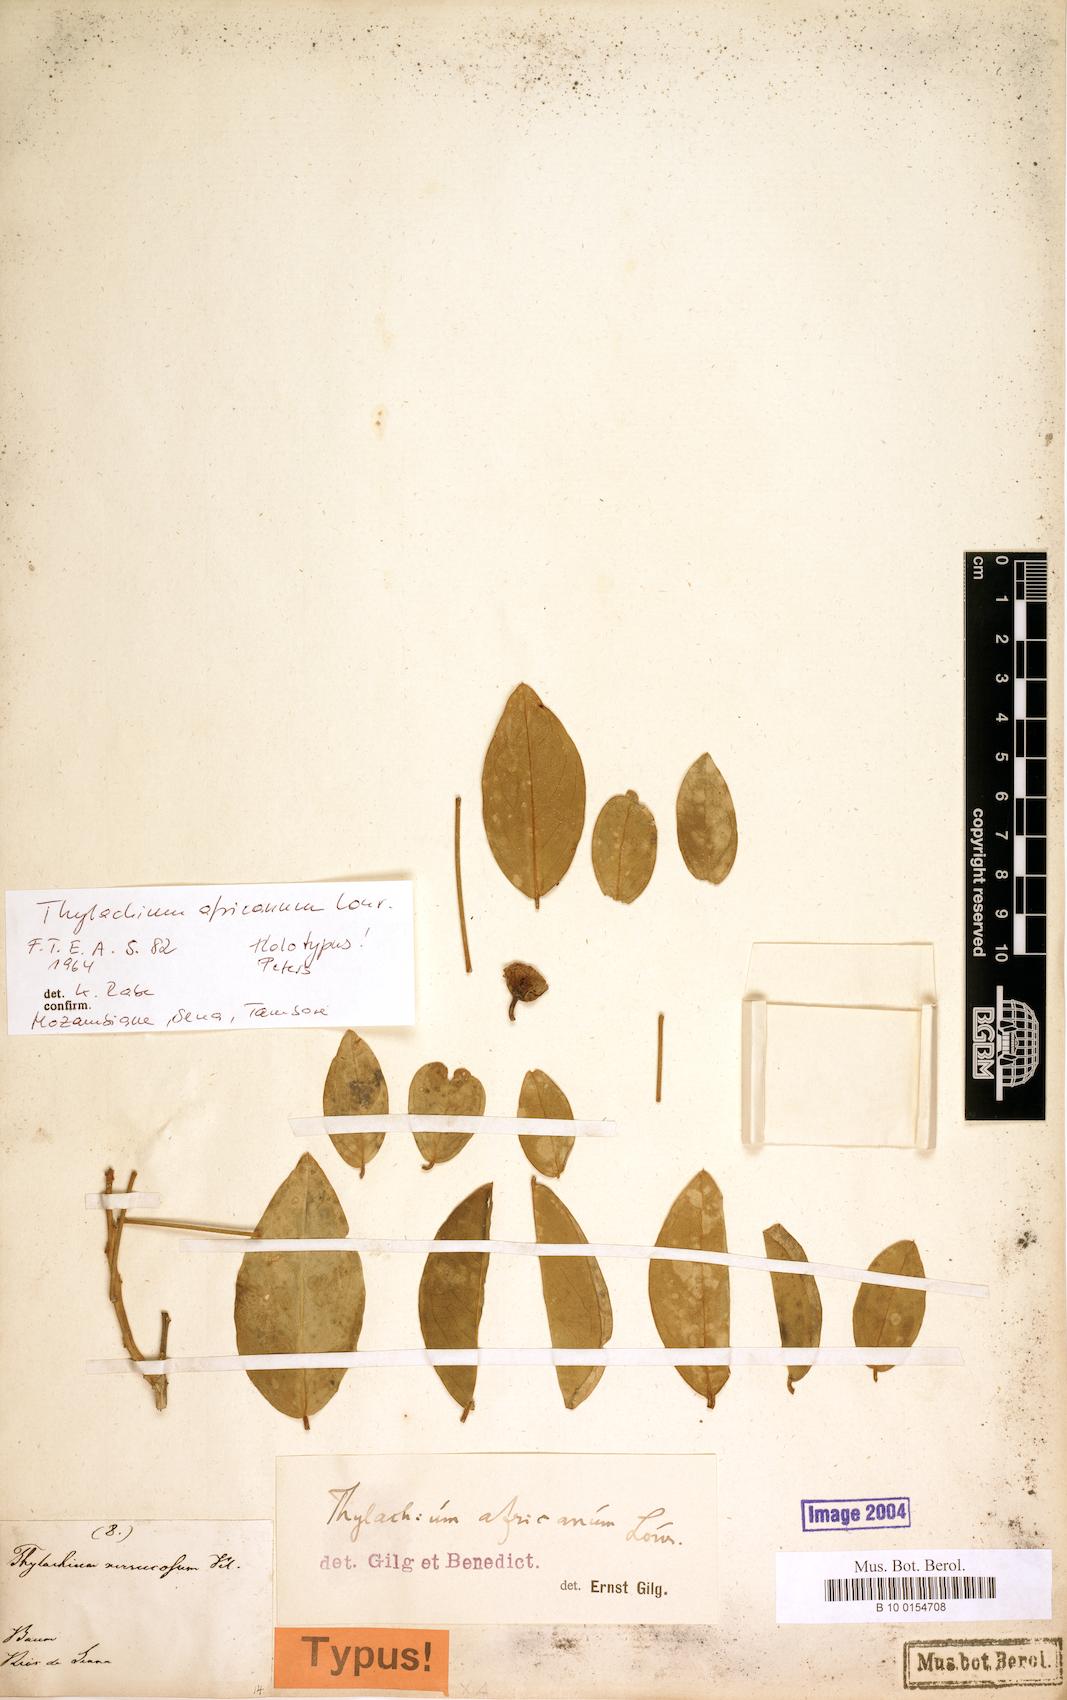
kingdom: Plantae
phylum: Tracheophyta
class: Magnoliopsida
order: Brassicales
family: Capparaceae
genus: Thilachium
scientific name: Thilachium africanum
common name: Cucumber bush
